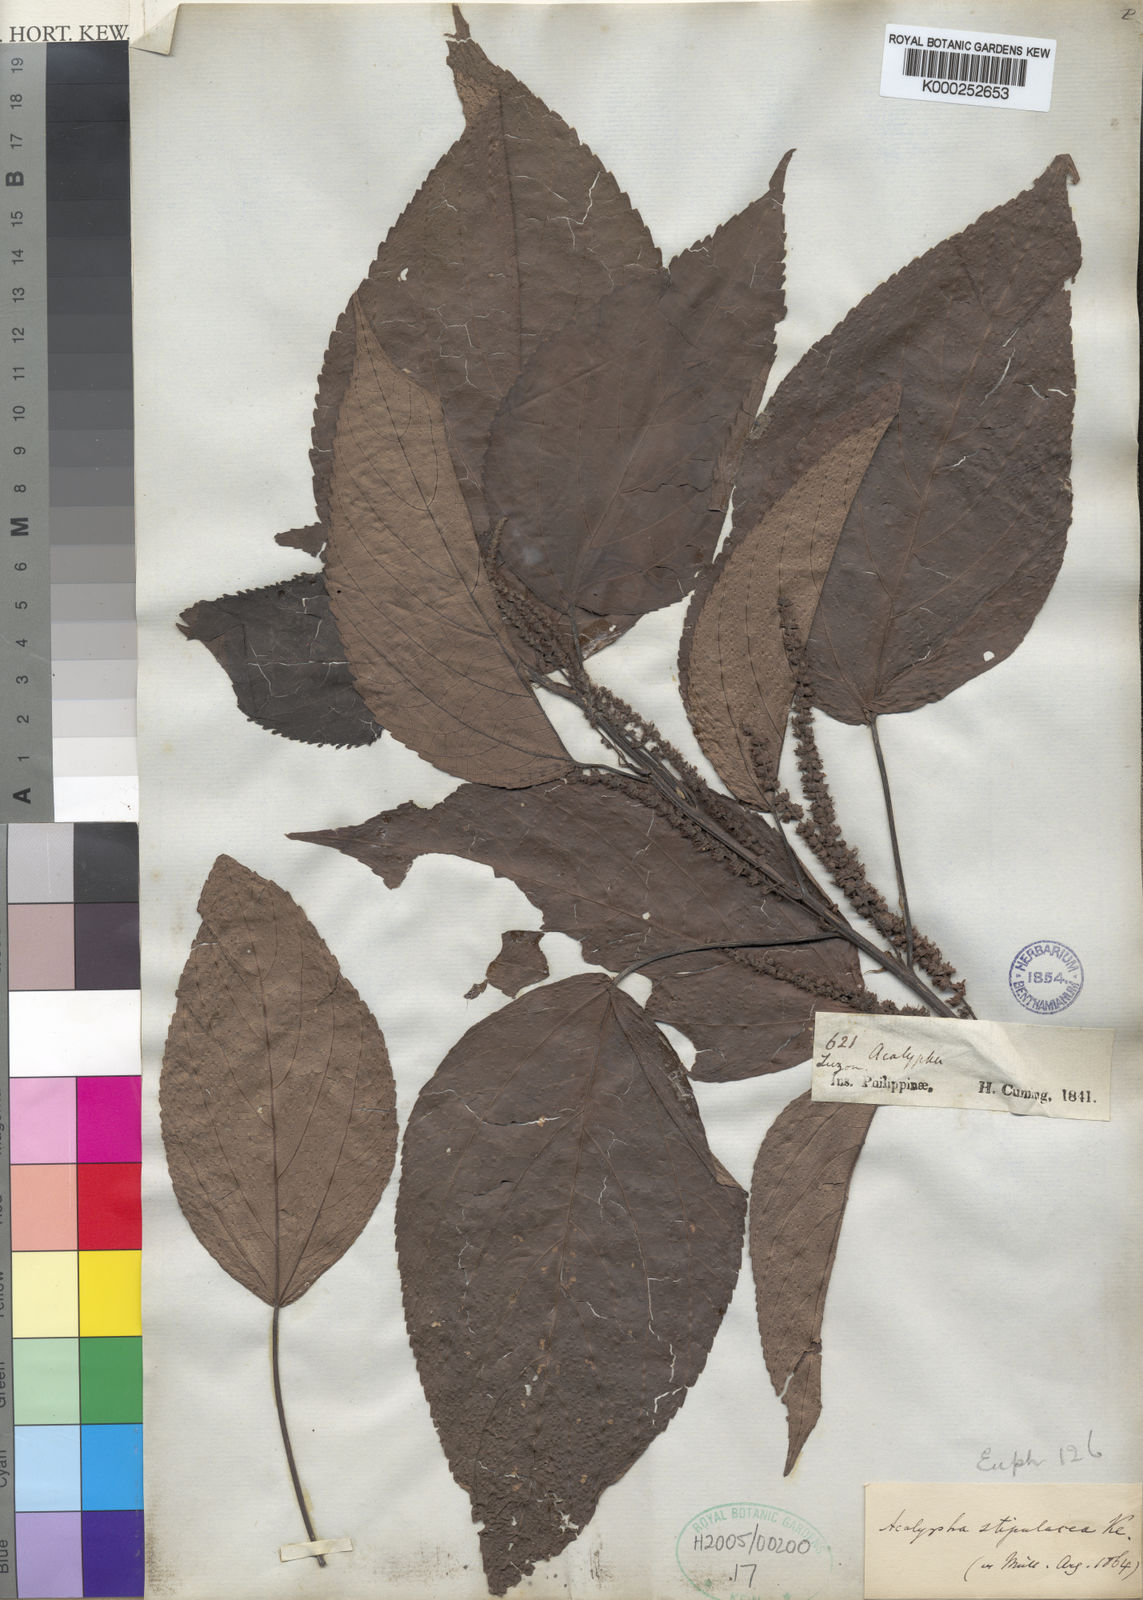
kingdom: Plantae
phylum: Tracheophyta
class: Magnoliopsida
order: Malpighiales
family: Euphorbiaceae
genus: Acalypha
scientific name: Acalypha amentacea
